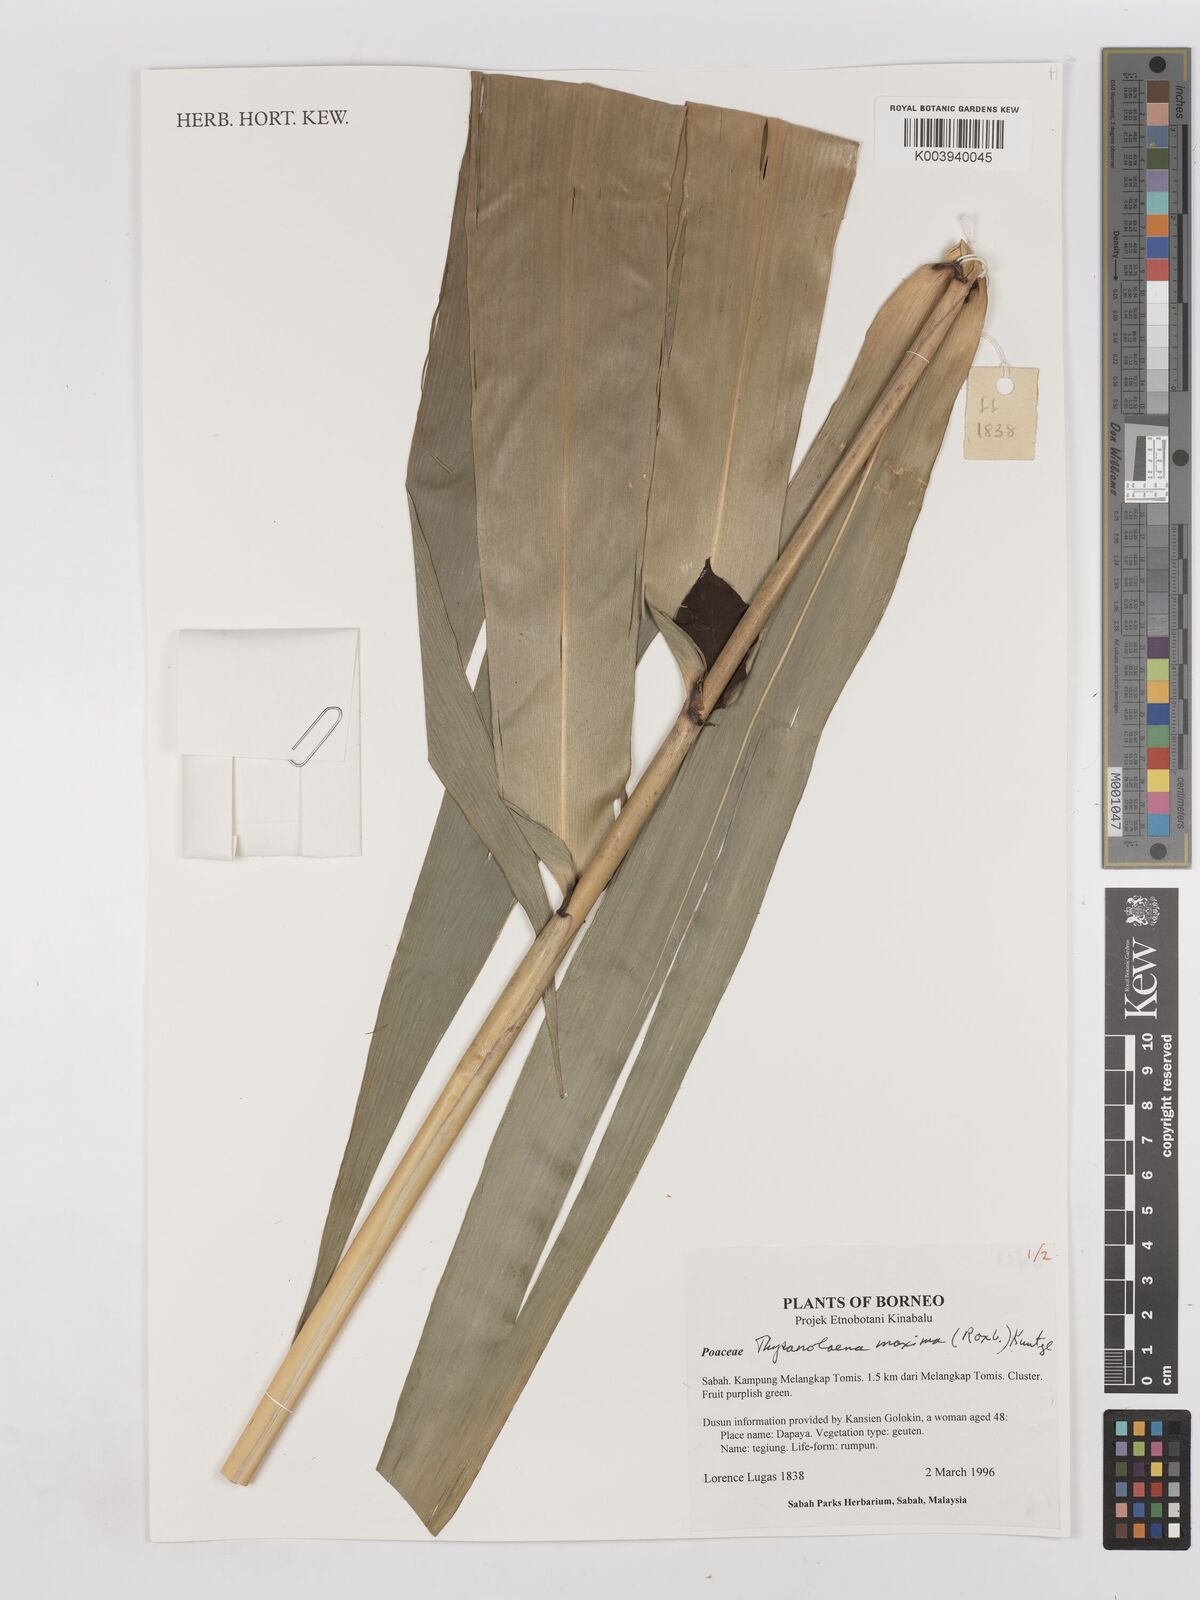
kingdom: Plantae
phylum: Tracheophyta
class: Liliopsida
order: Poales
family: Poaceae
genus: Thysanolaena
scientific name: Thysanolaena latifolia
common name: Tiger grass
